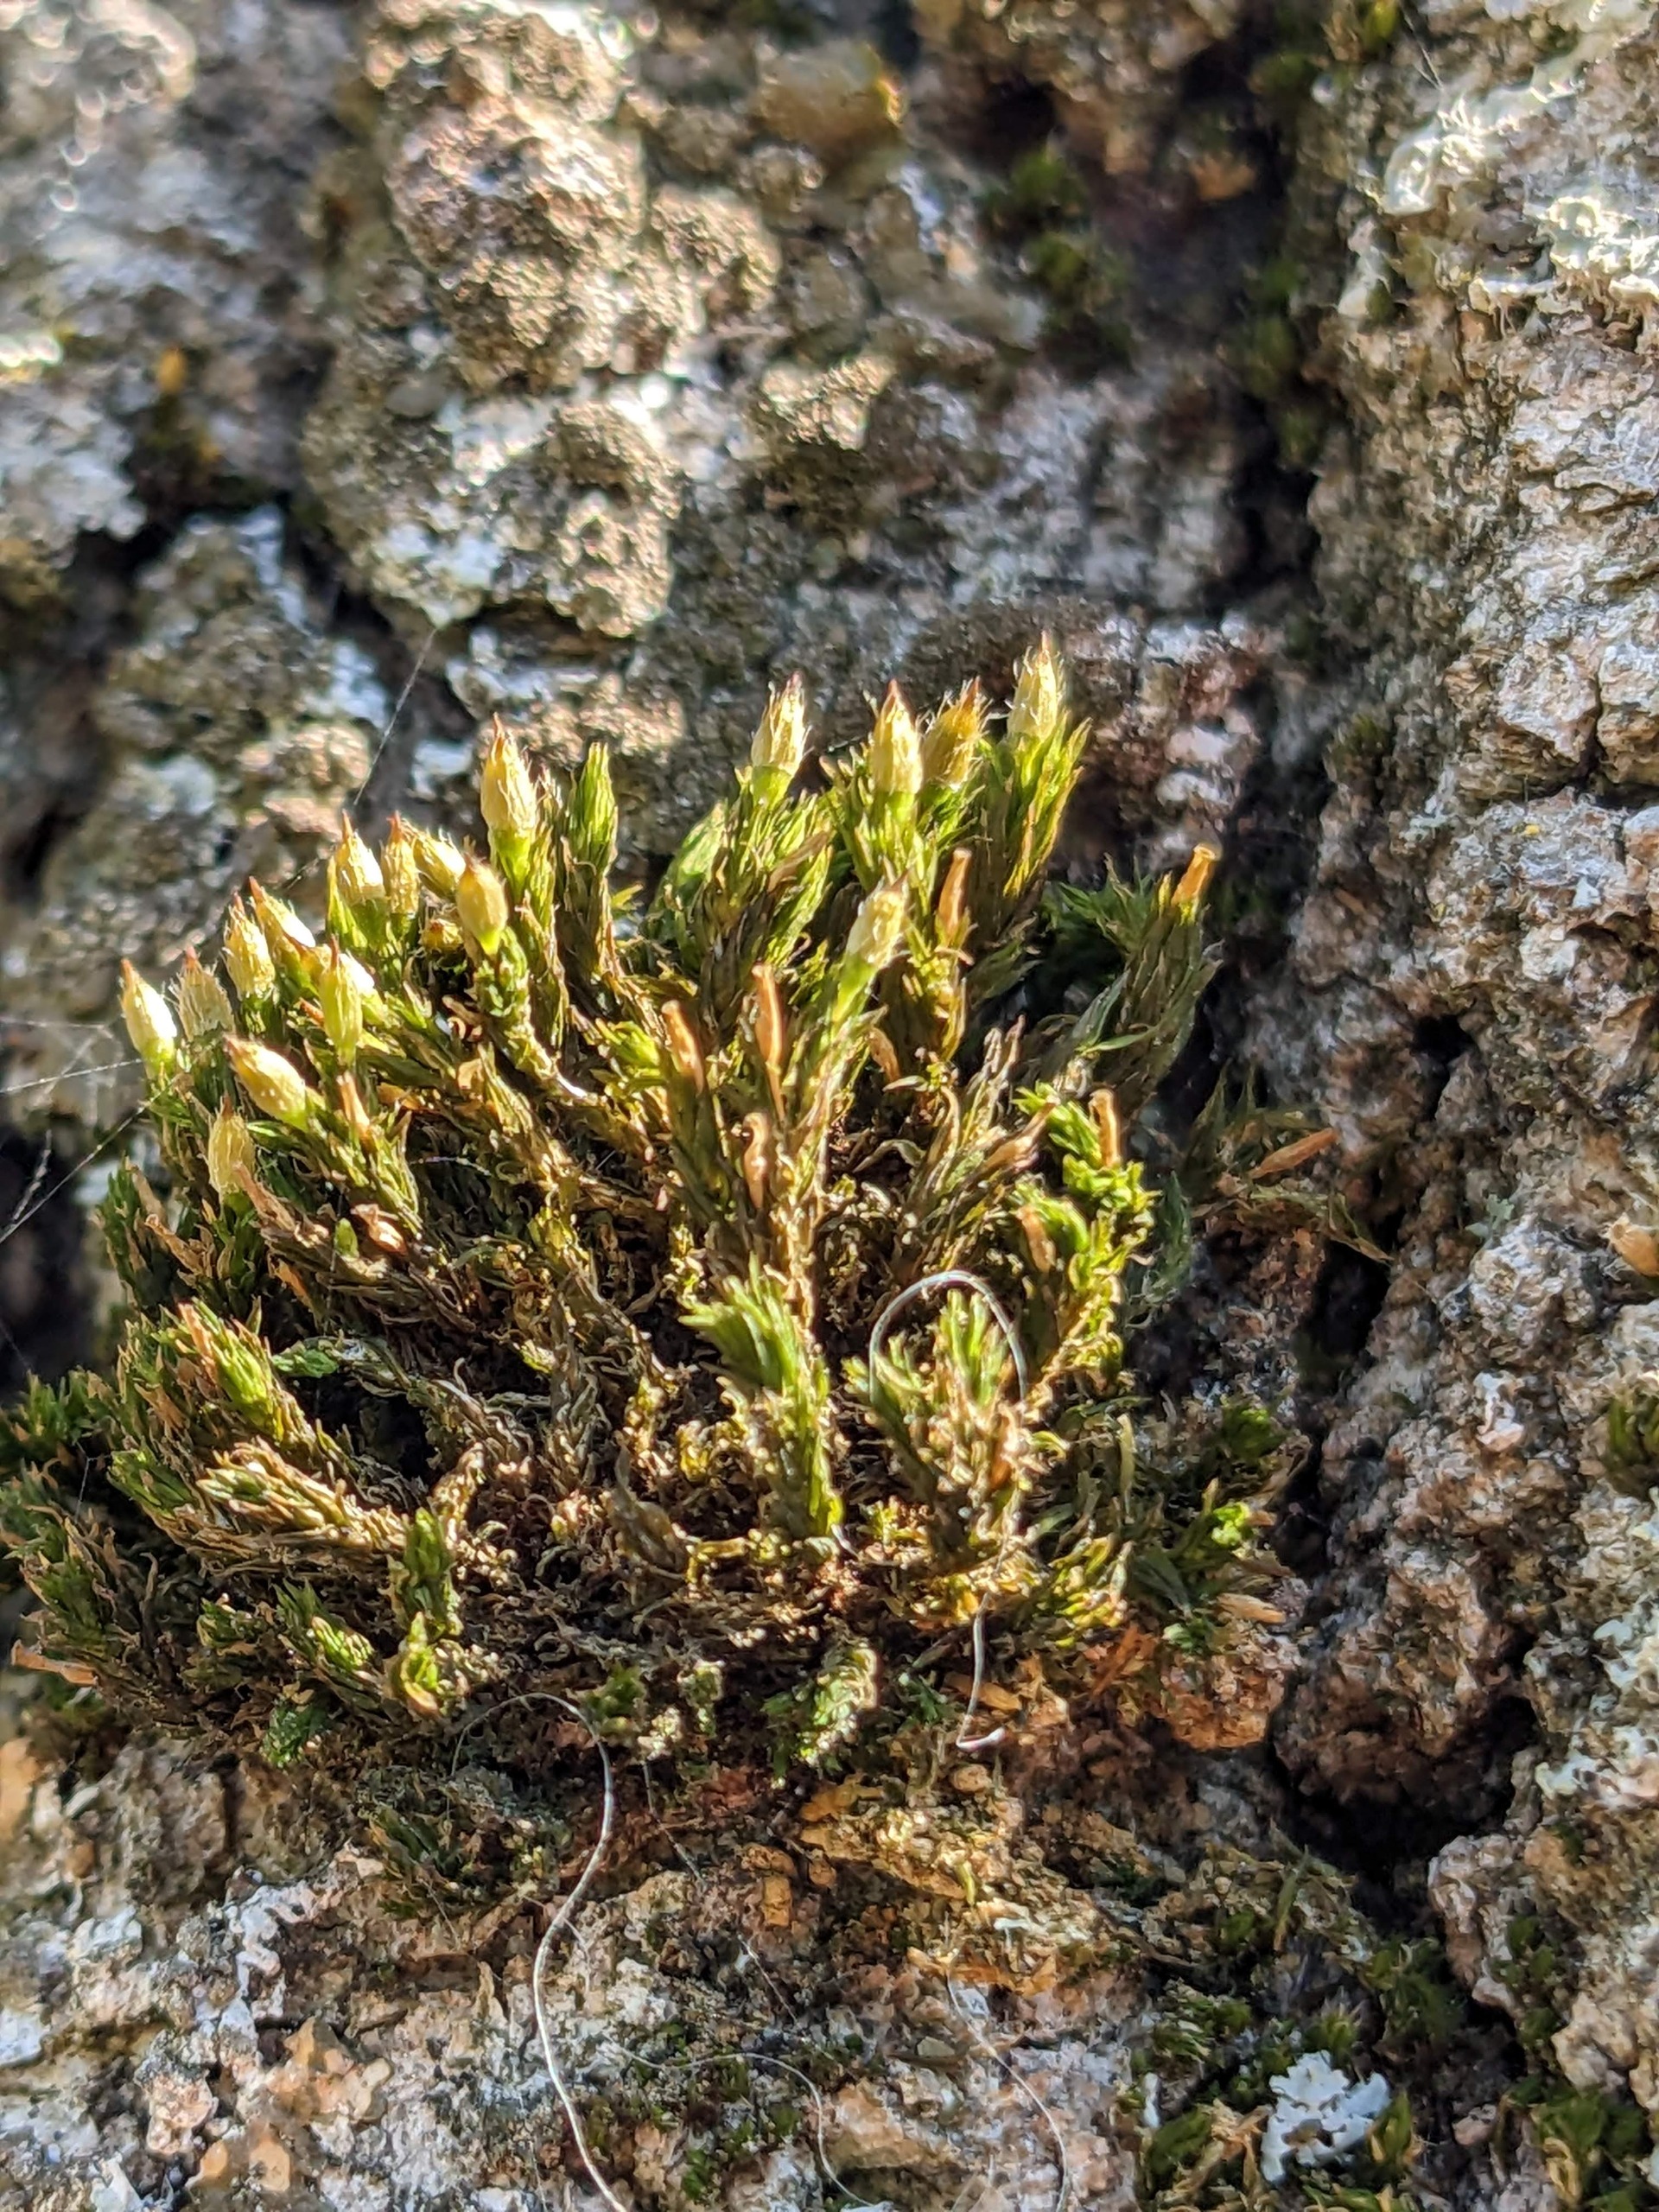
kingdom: Plantae
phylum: Bryophyta
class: Bryopsida
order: Orthotrichales
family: Orthotrichaceae
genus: Lewinskya
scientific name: Lewinskya speciosa
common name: Kortstribet furehætte
